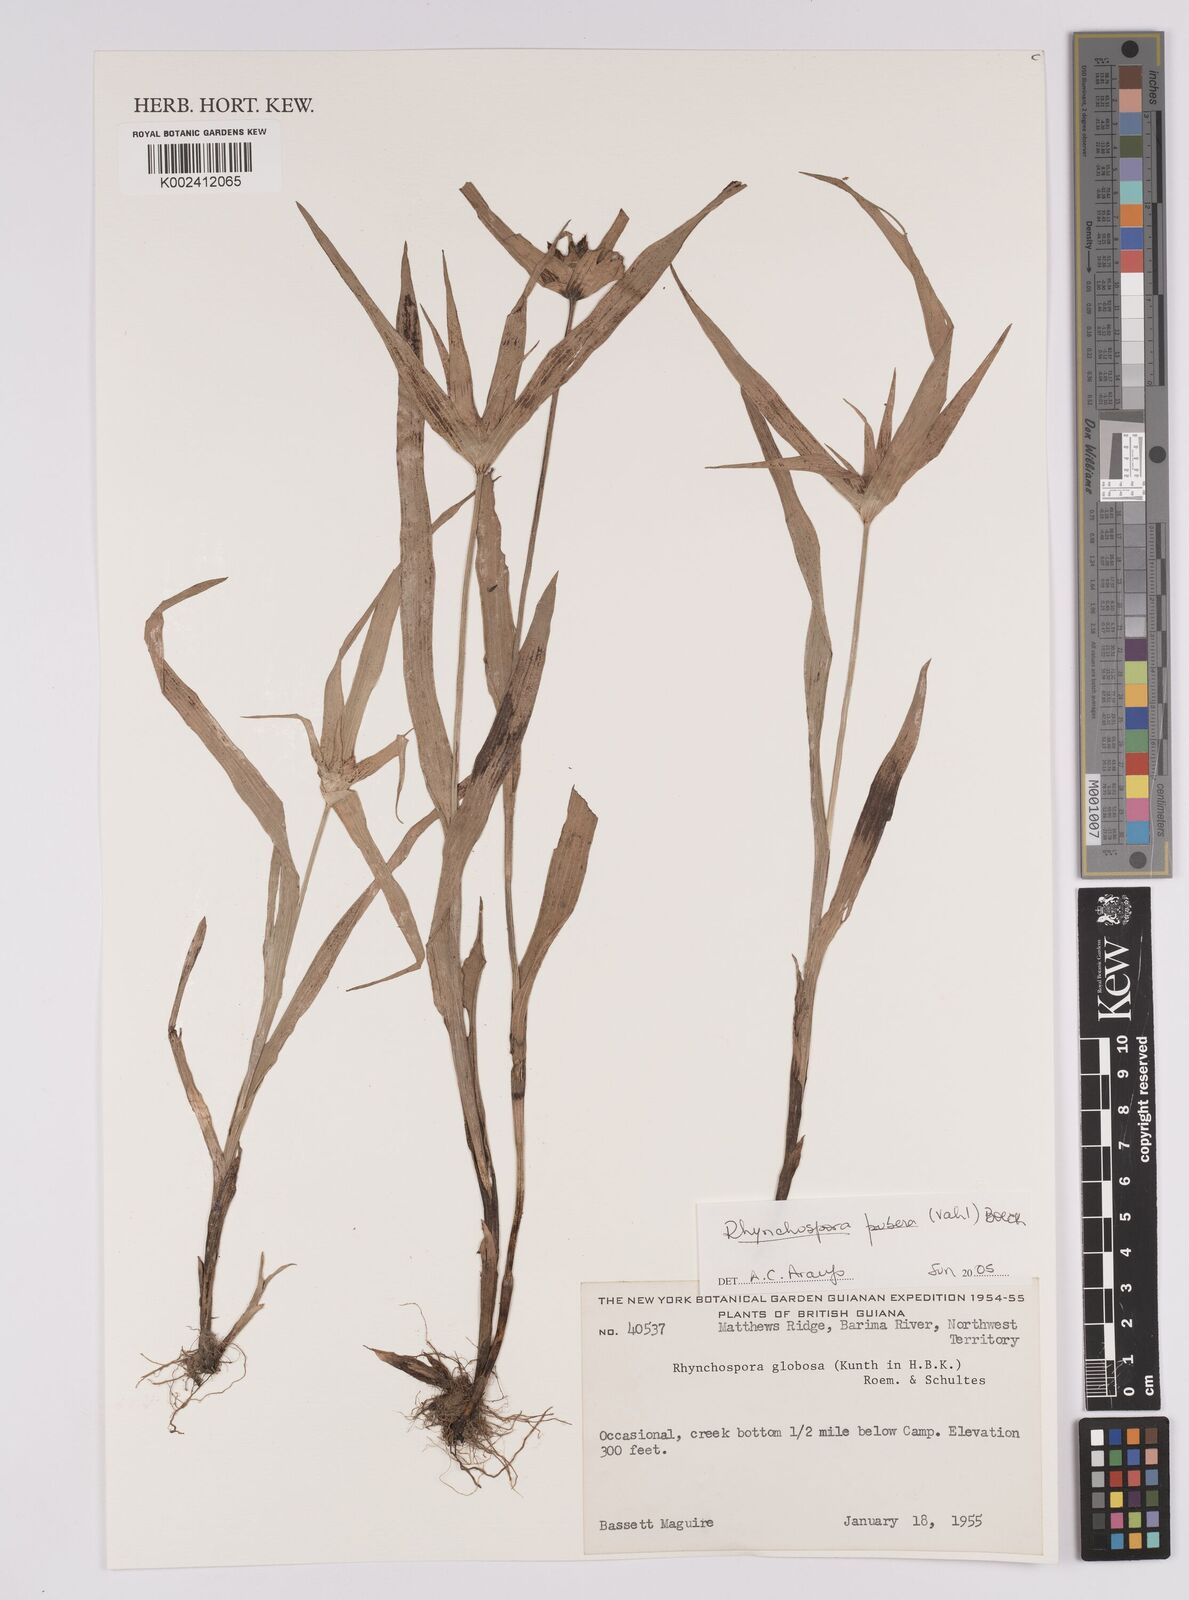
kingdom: Plantae
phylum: Tracheophyta
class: Liliopsida
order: Poales
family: Cyperaceae
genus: Rhynchospora
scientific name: Rhynchospora pubera
